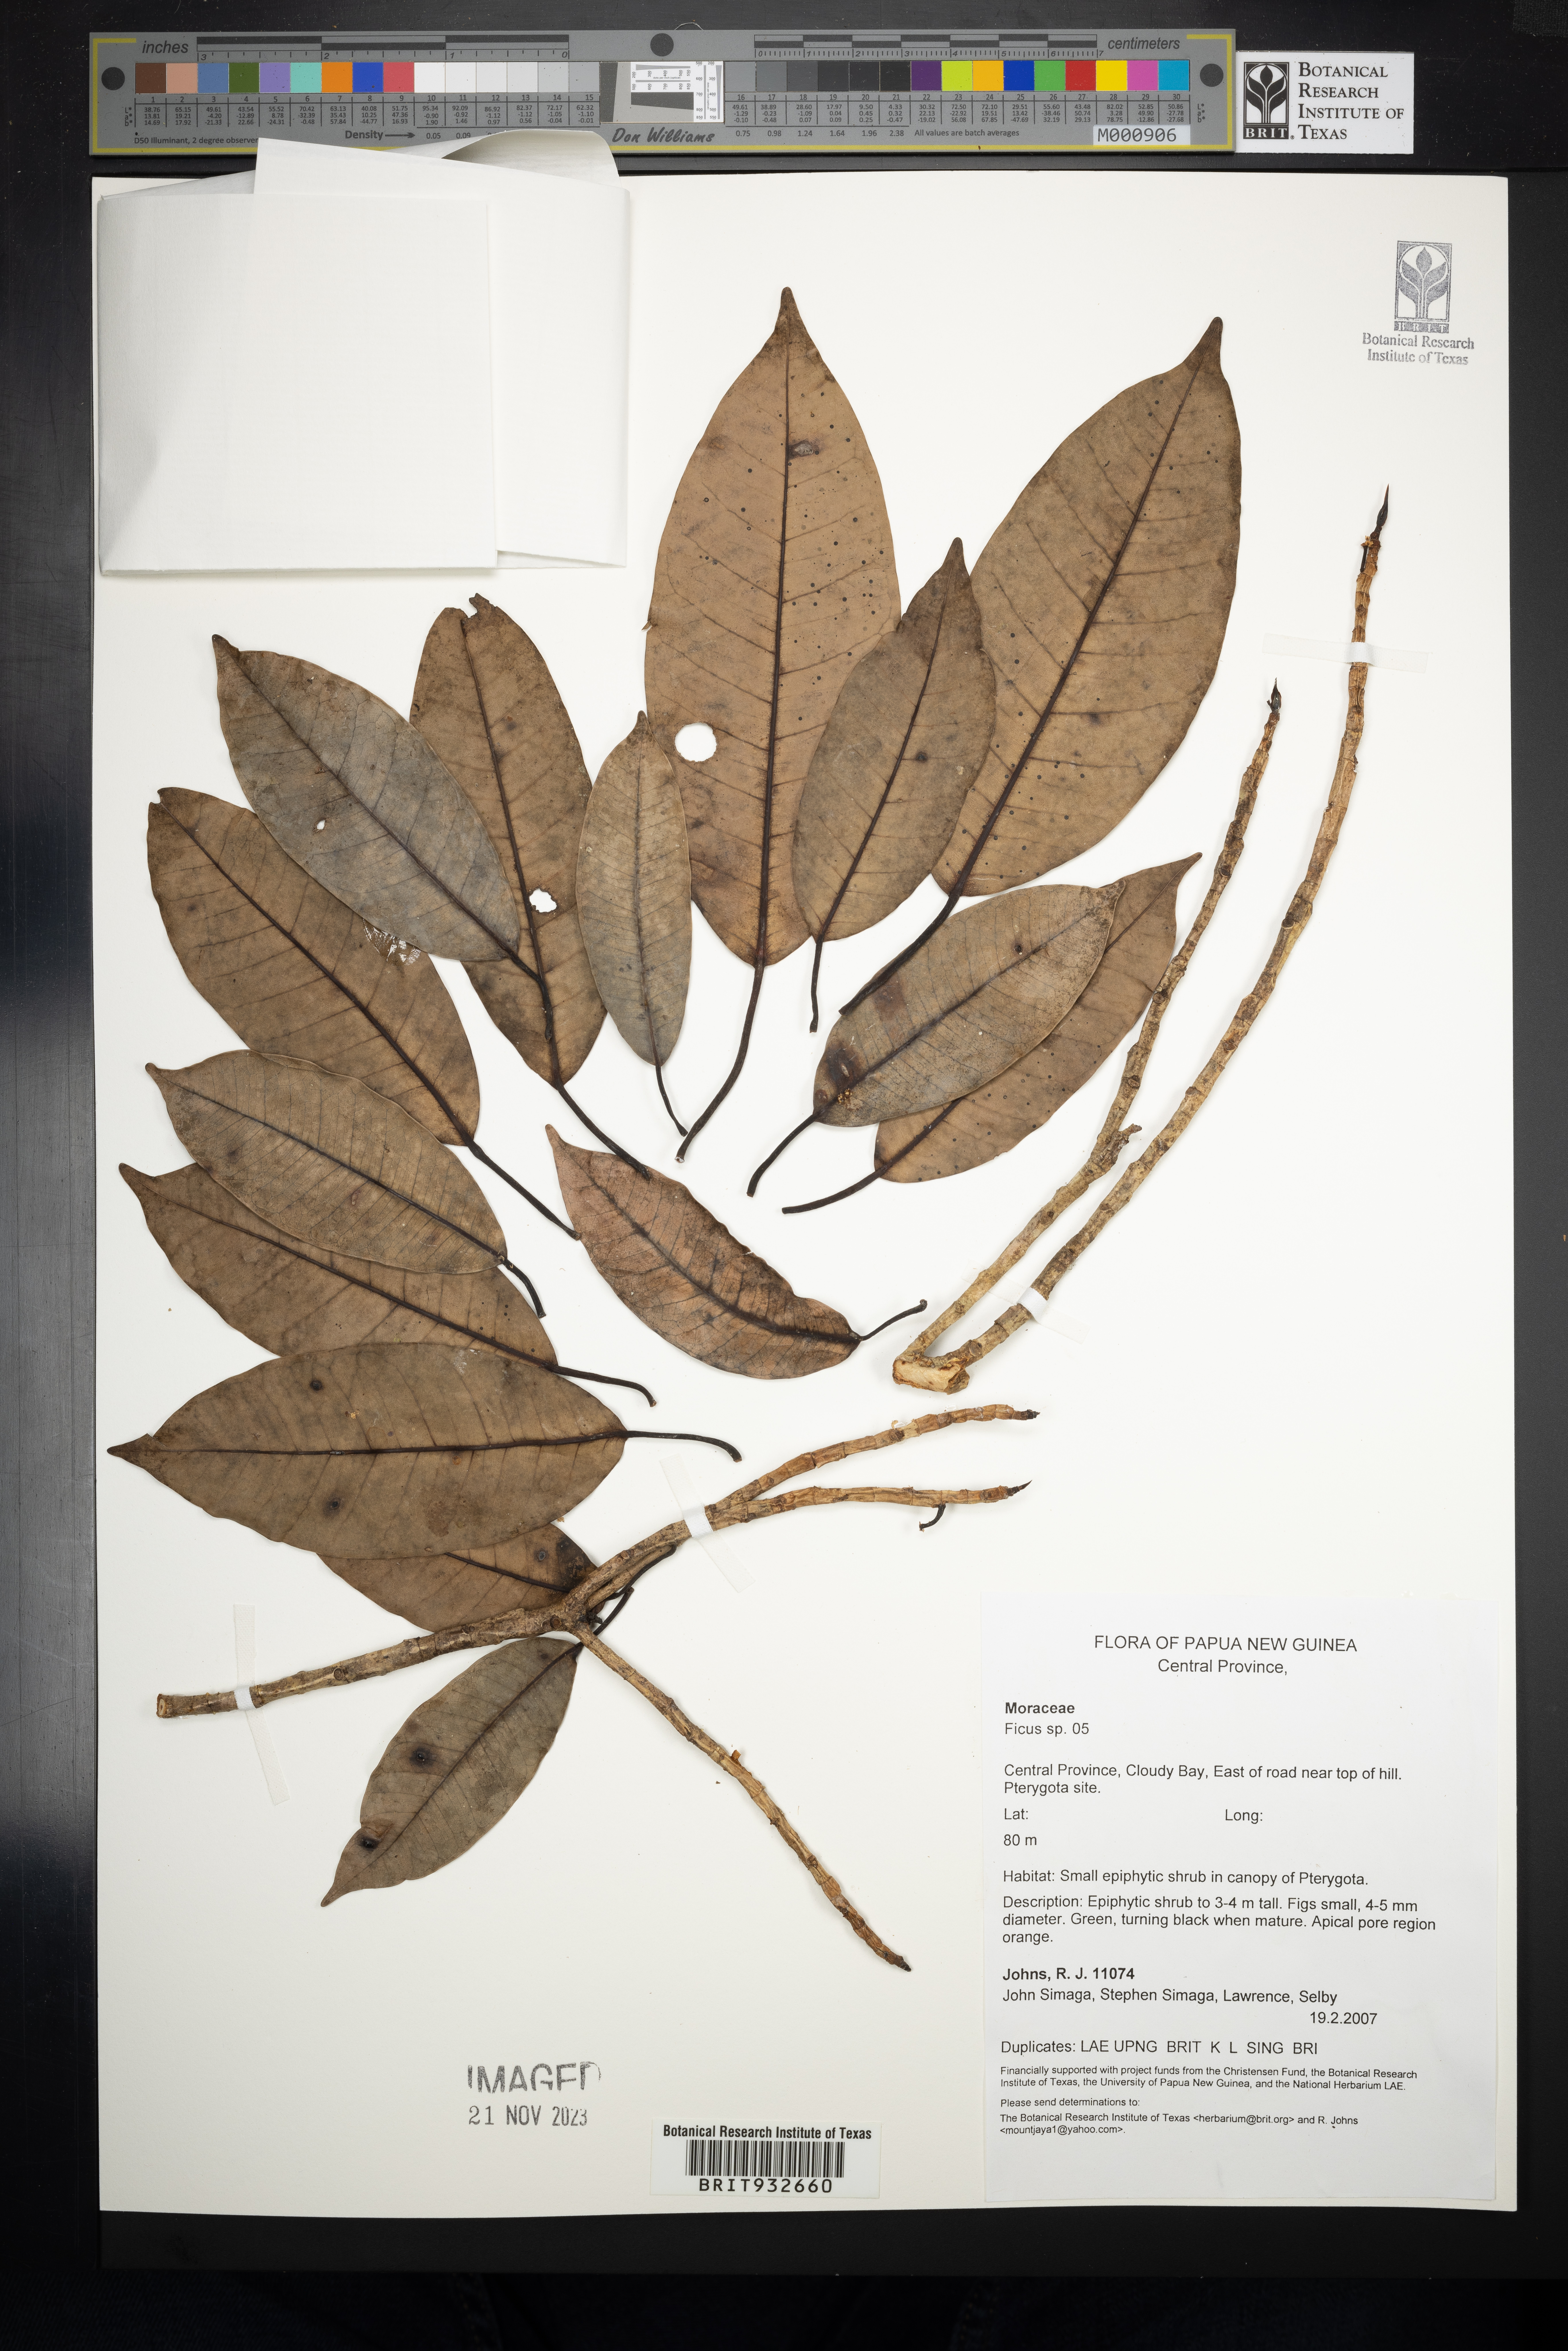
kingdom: Plantae
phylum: Tracheophyta
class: Magnoliopsida
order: Rosales
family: Moraceae
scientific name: Moraceae
